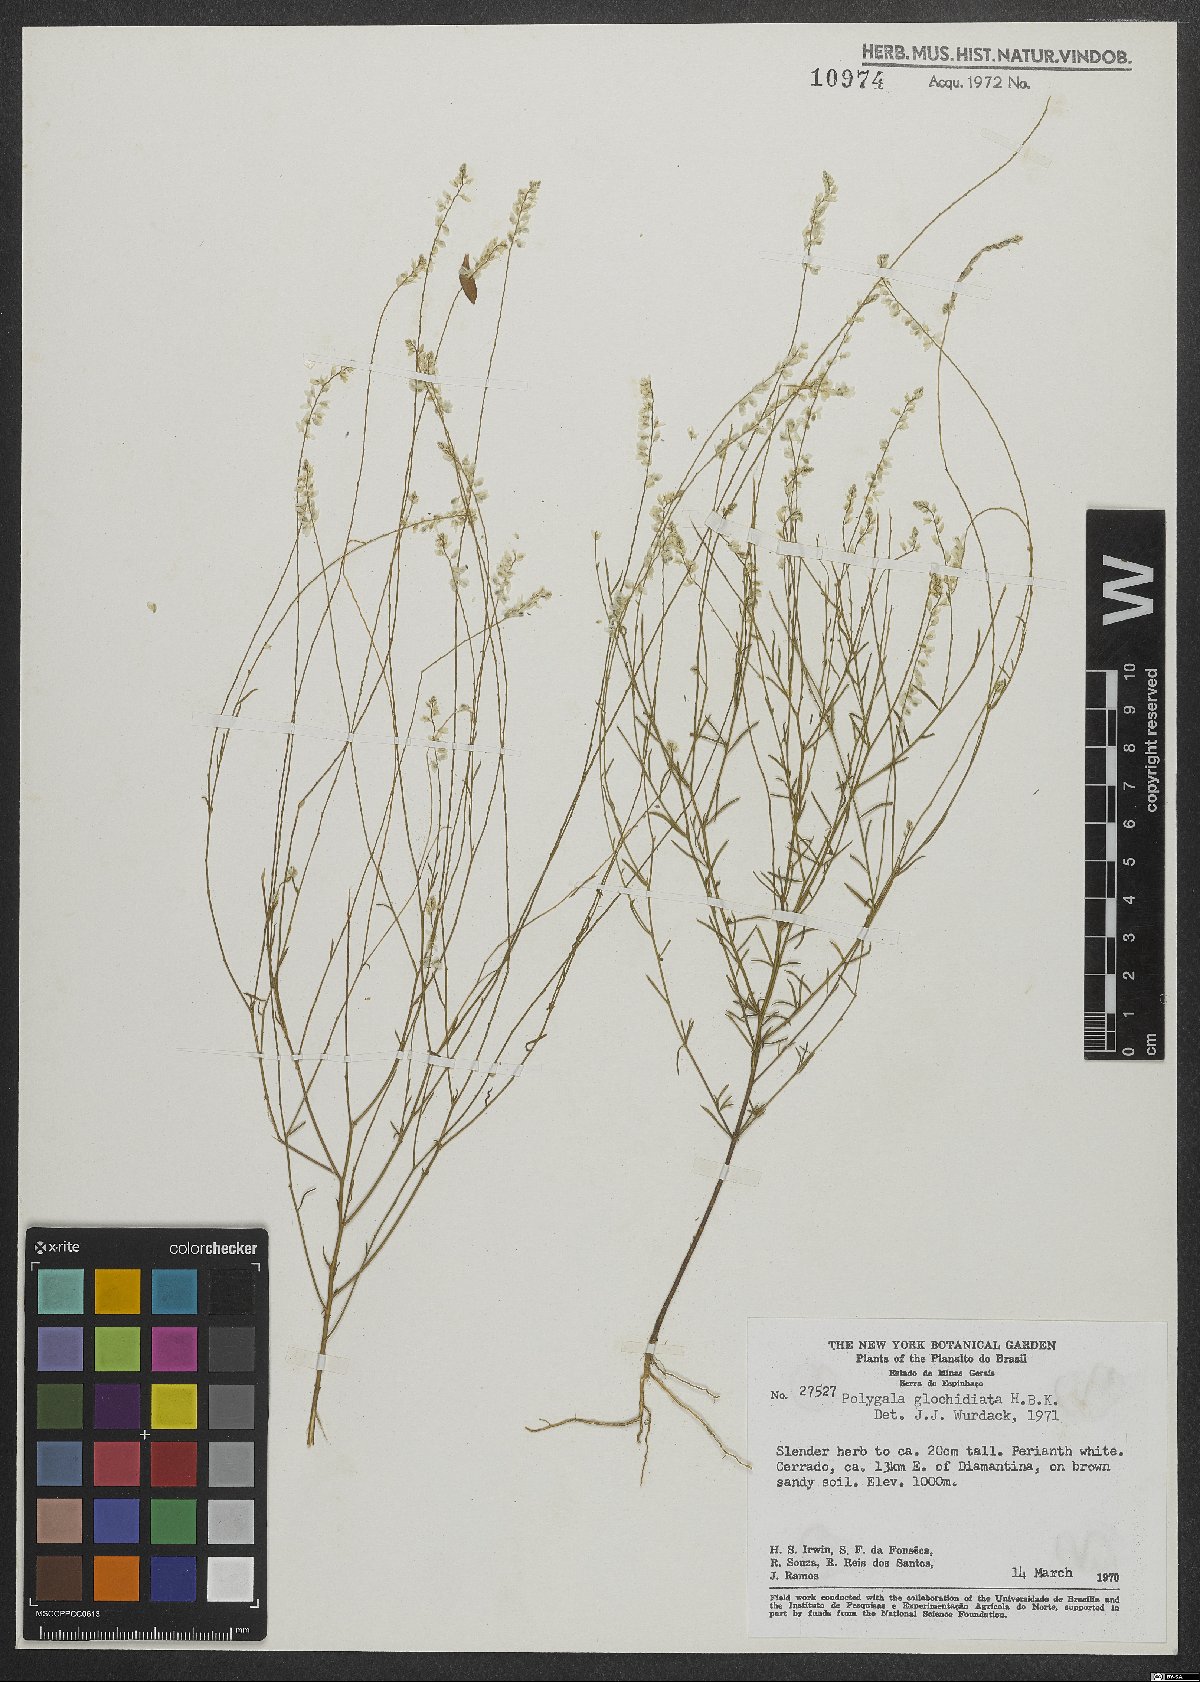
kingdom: Plantae
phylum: Tracheophyta
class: Magnoliopsida
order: Fabales
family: Polygalaceae
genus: Polygala
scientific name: Polygala Senega glochidata
